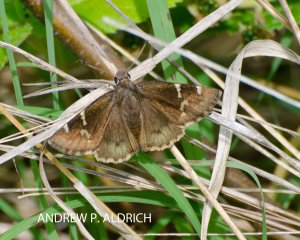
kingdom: Animalia
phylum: Arthropoda
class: Insecta
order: Lepidoptera
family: Hesperiidae
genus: Autochton
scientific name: Autochton
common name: Northern Cloudywing
